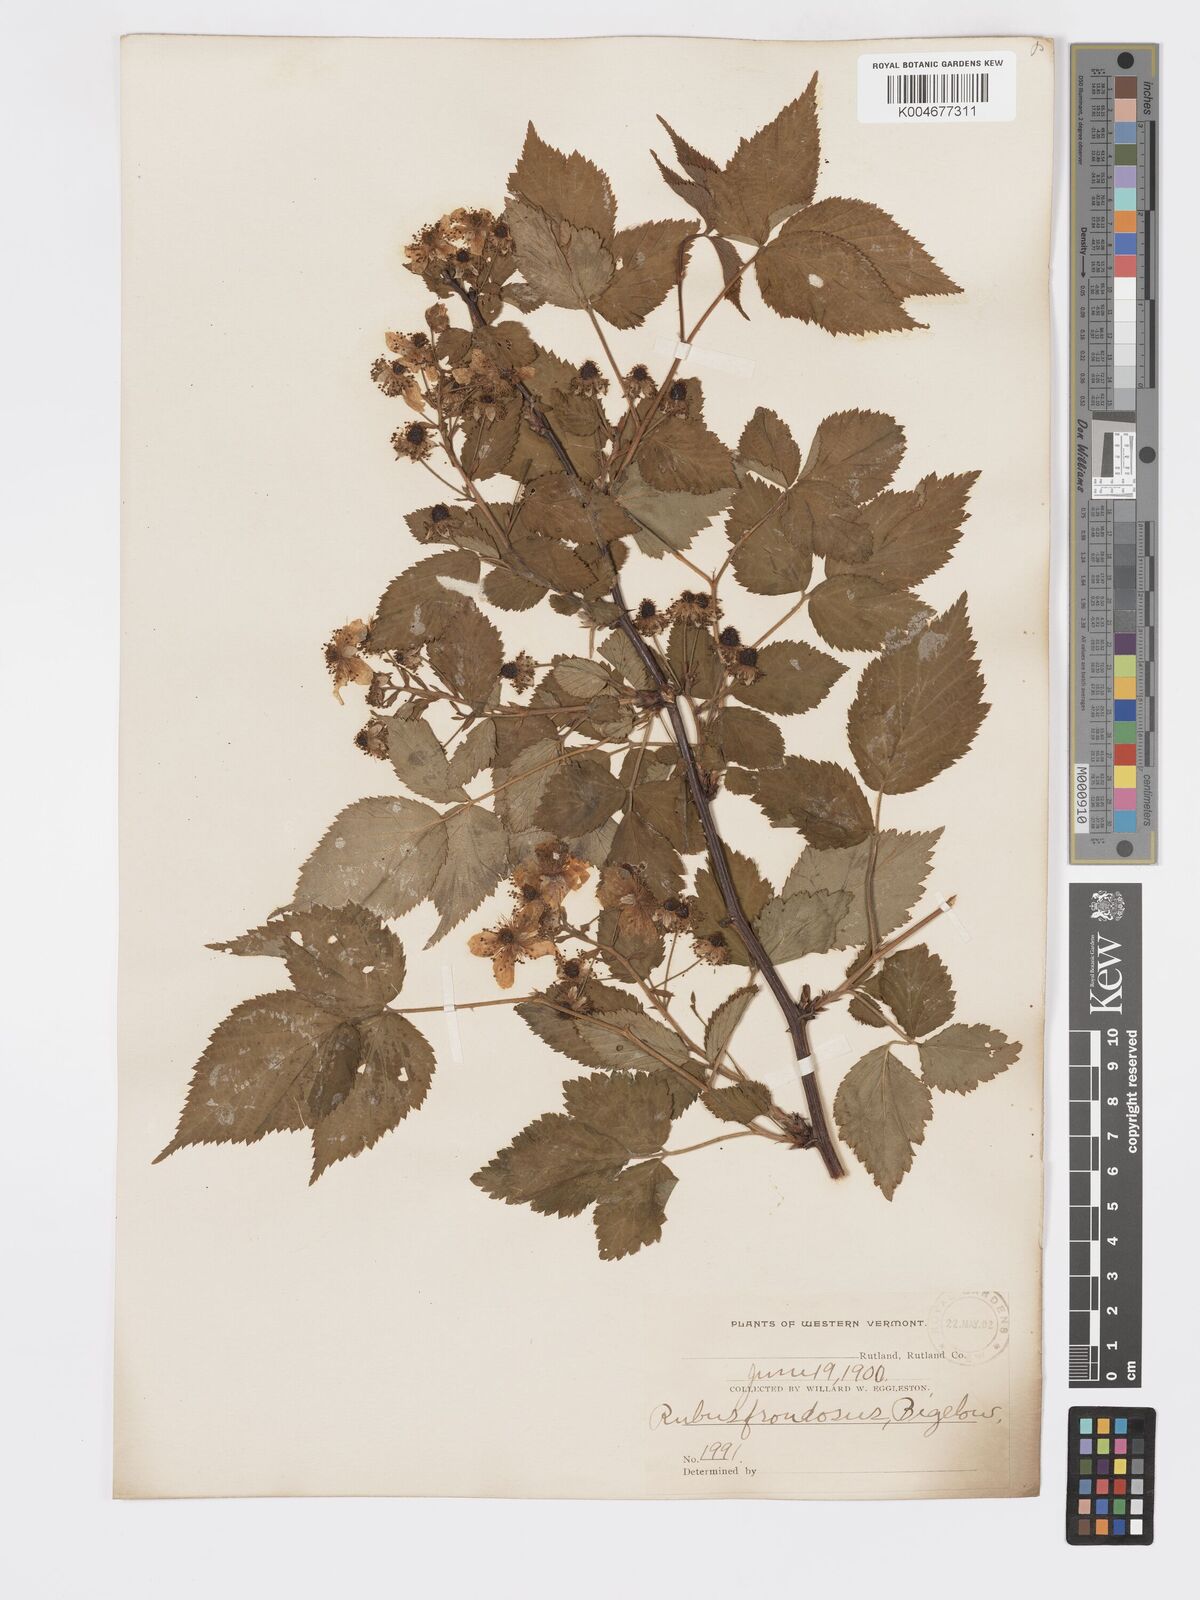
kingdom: Plantae
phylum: Tracheophyta
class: Magnoliopsida
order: Rosales
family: Rosaceae
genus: Rubus
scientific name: Rubus frondosus
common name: Yankee blackberry
